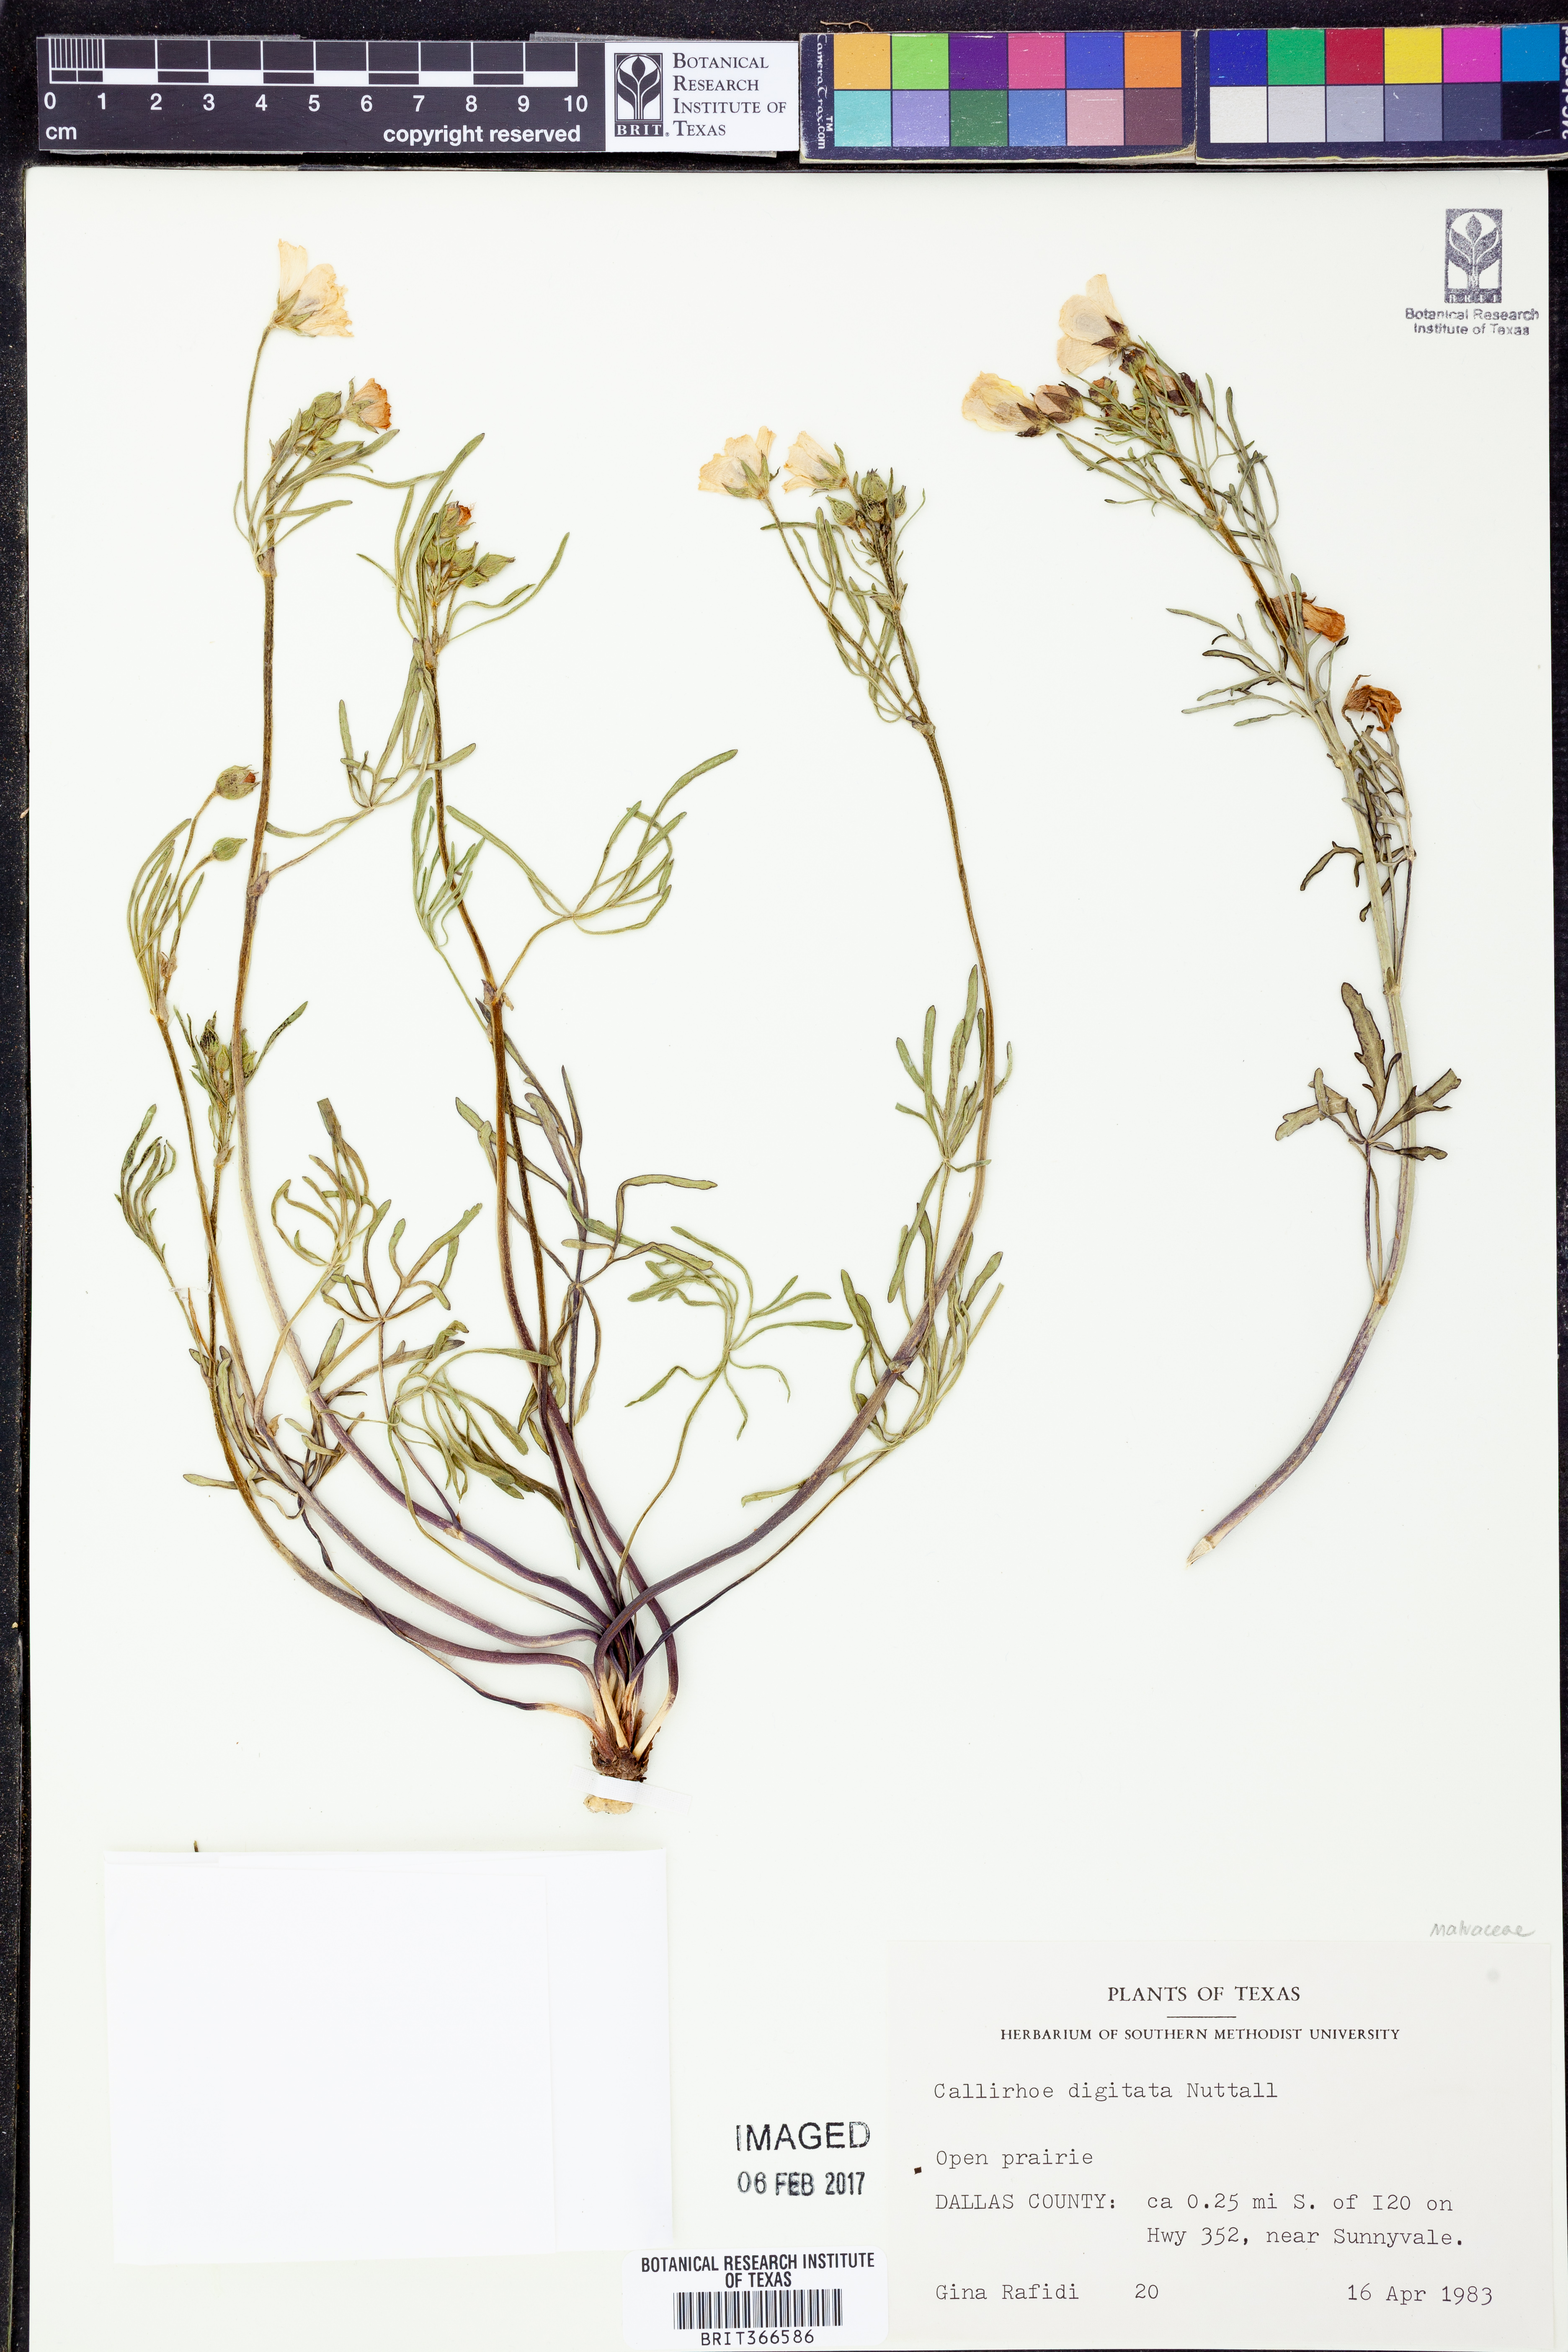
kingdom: Plantae
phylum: Tracheophyta
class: Magnoliopsida
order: Malvales
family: Malvaceae
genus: Callirhoe
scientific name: Callirhoe digitata
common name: Finger poppy-mallow
